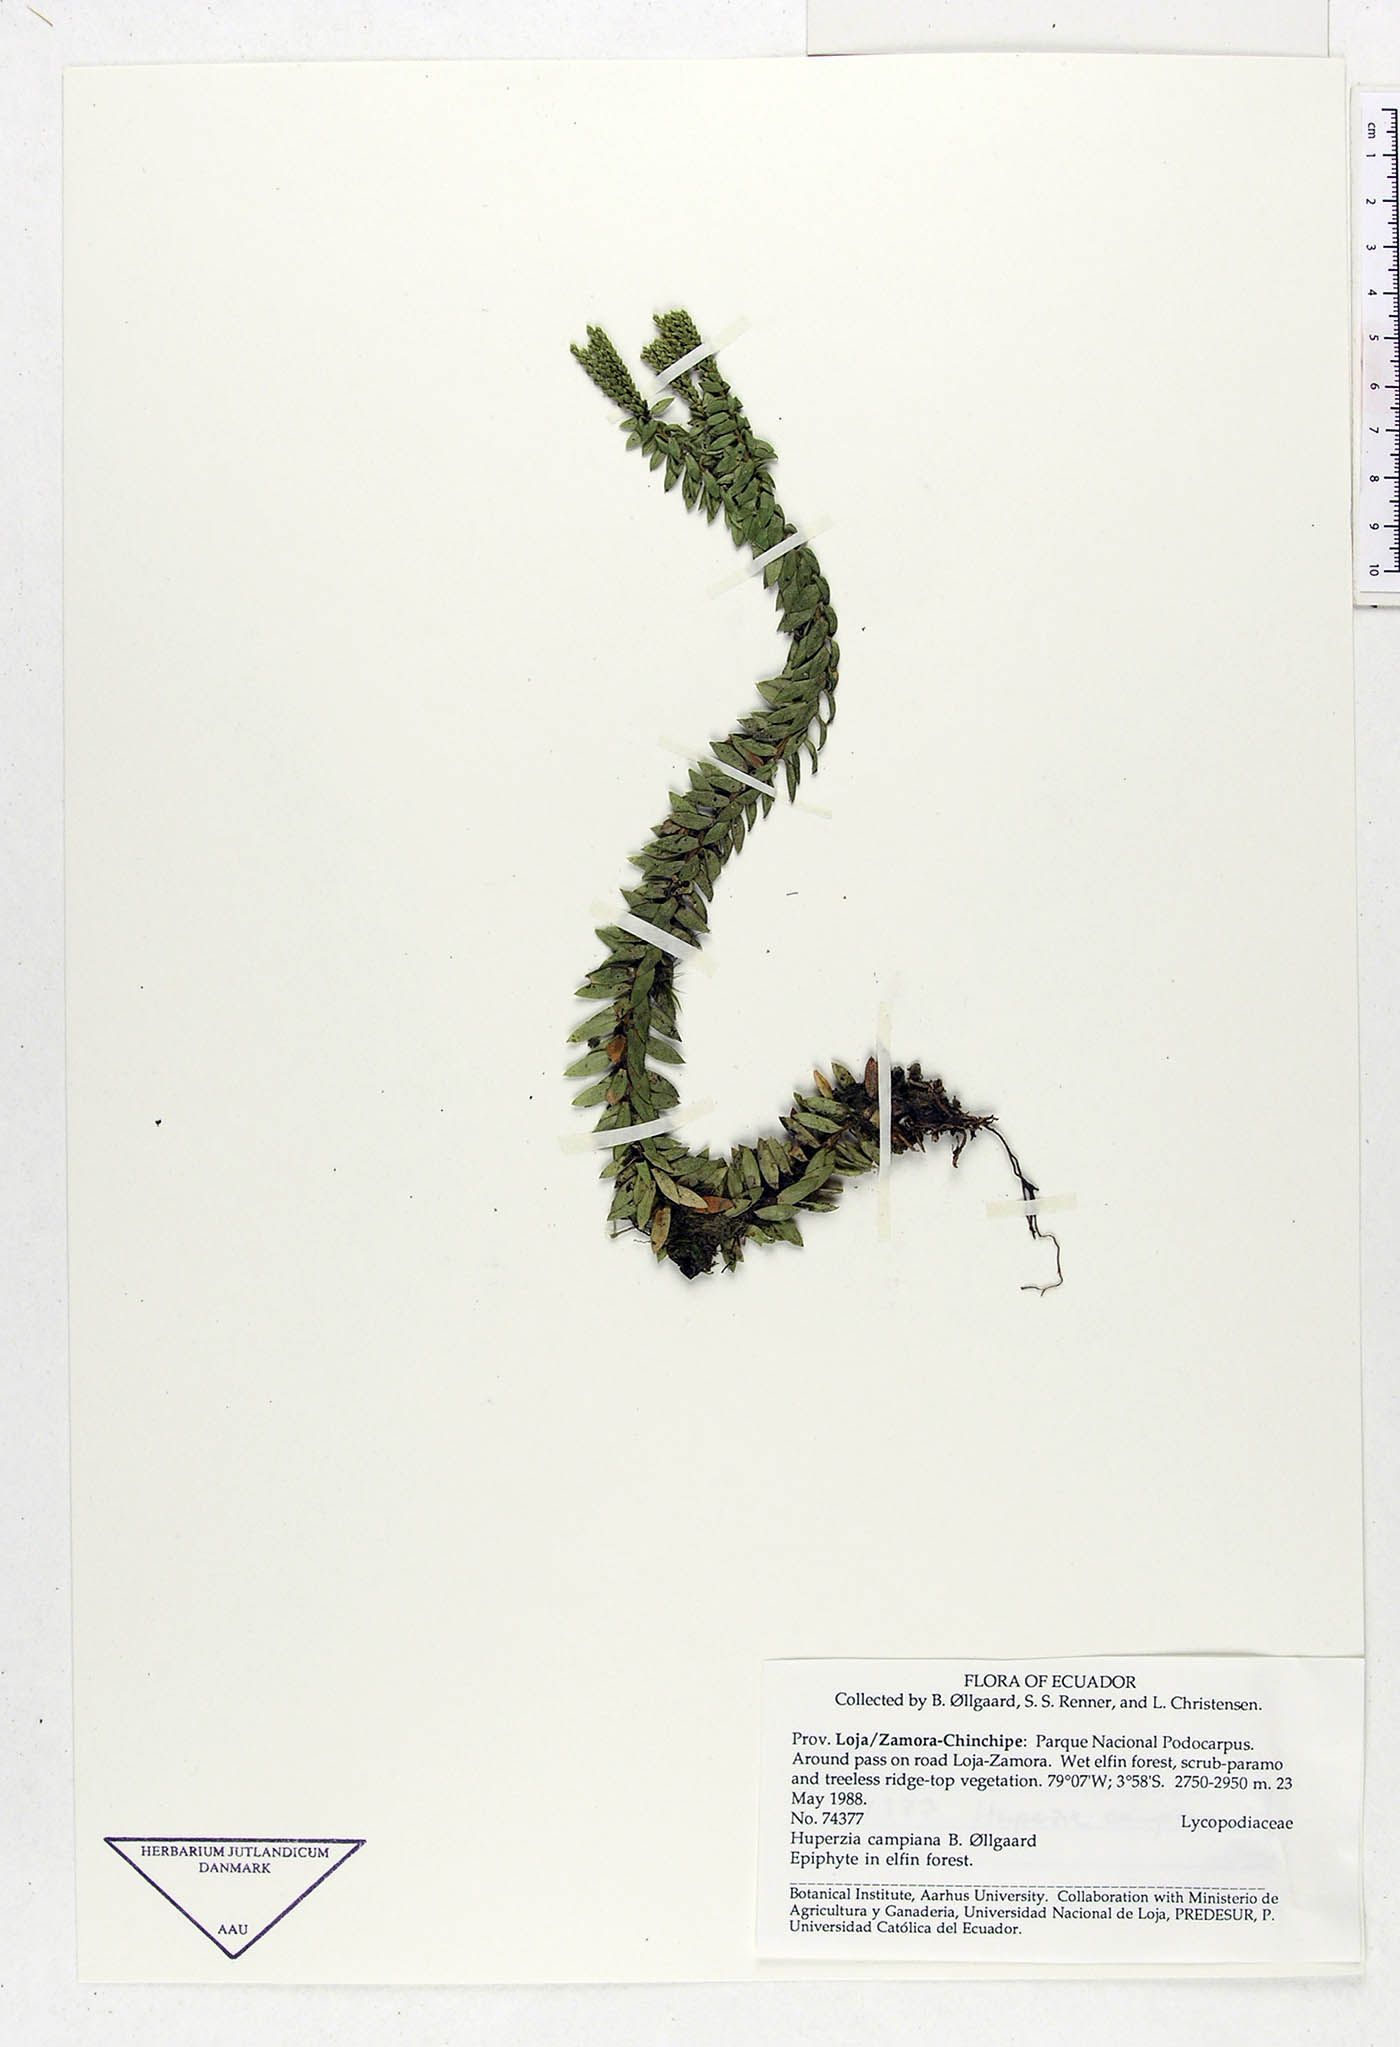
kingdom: Plantae
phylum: Tracheophyta
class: Lycopodiopsida
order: Lycopodiales
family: Lycopodiaceae
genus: Phlegmariurus
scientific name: Phlegmariurus campianus
